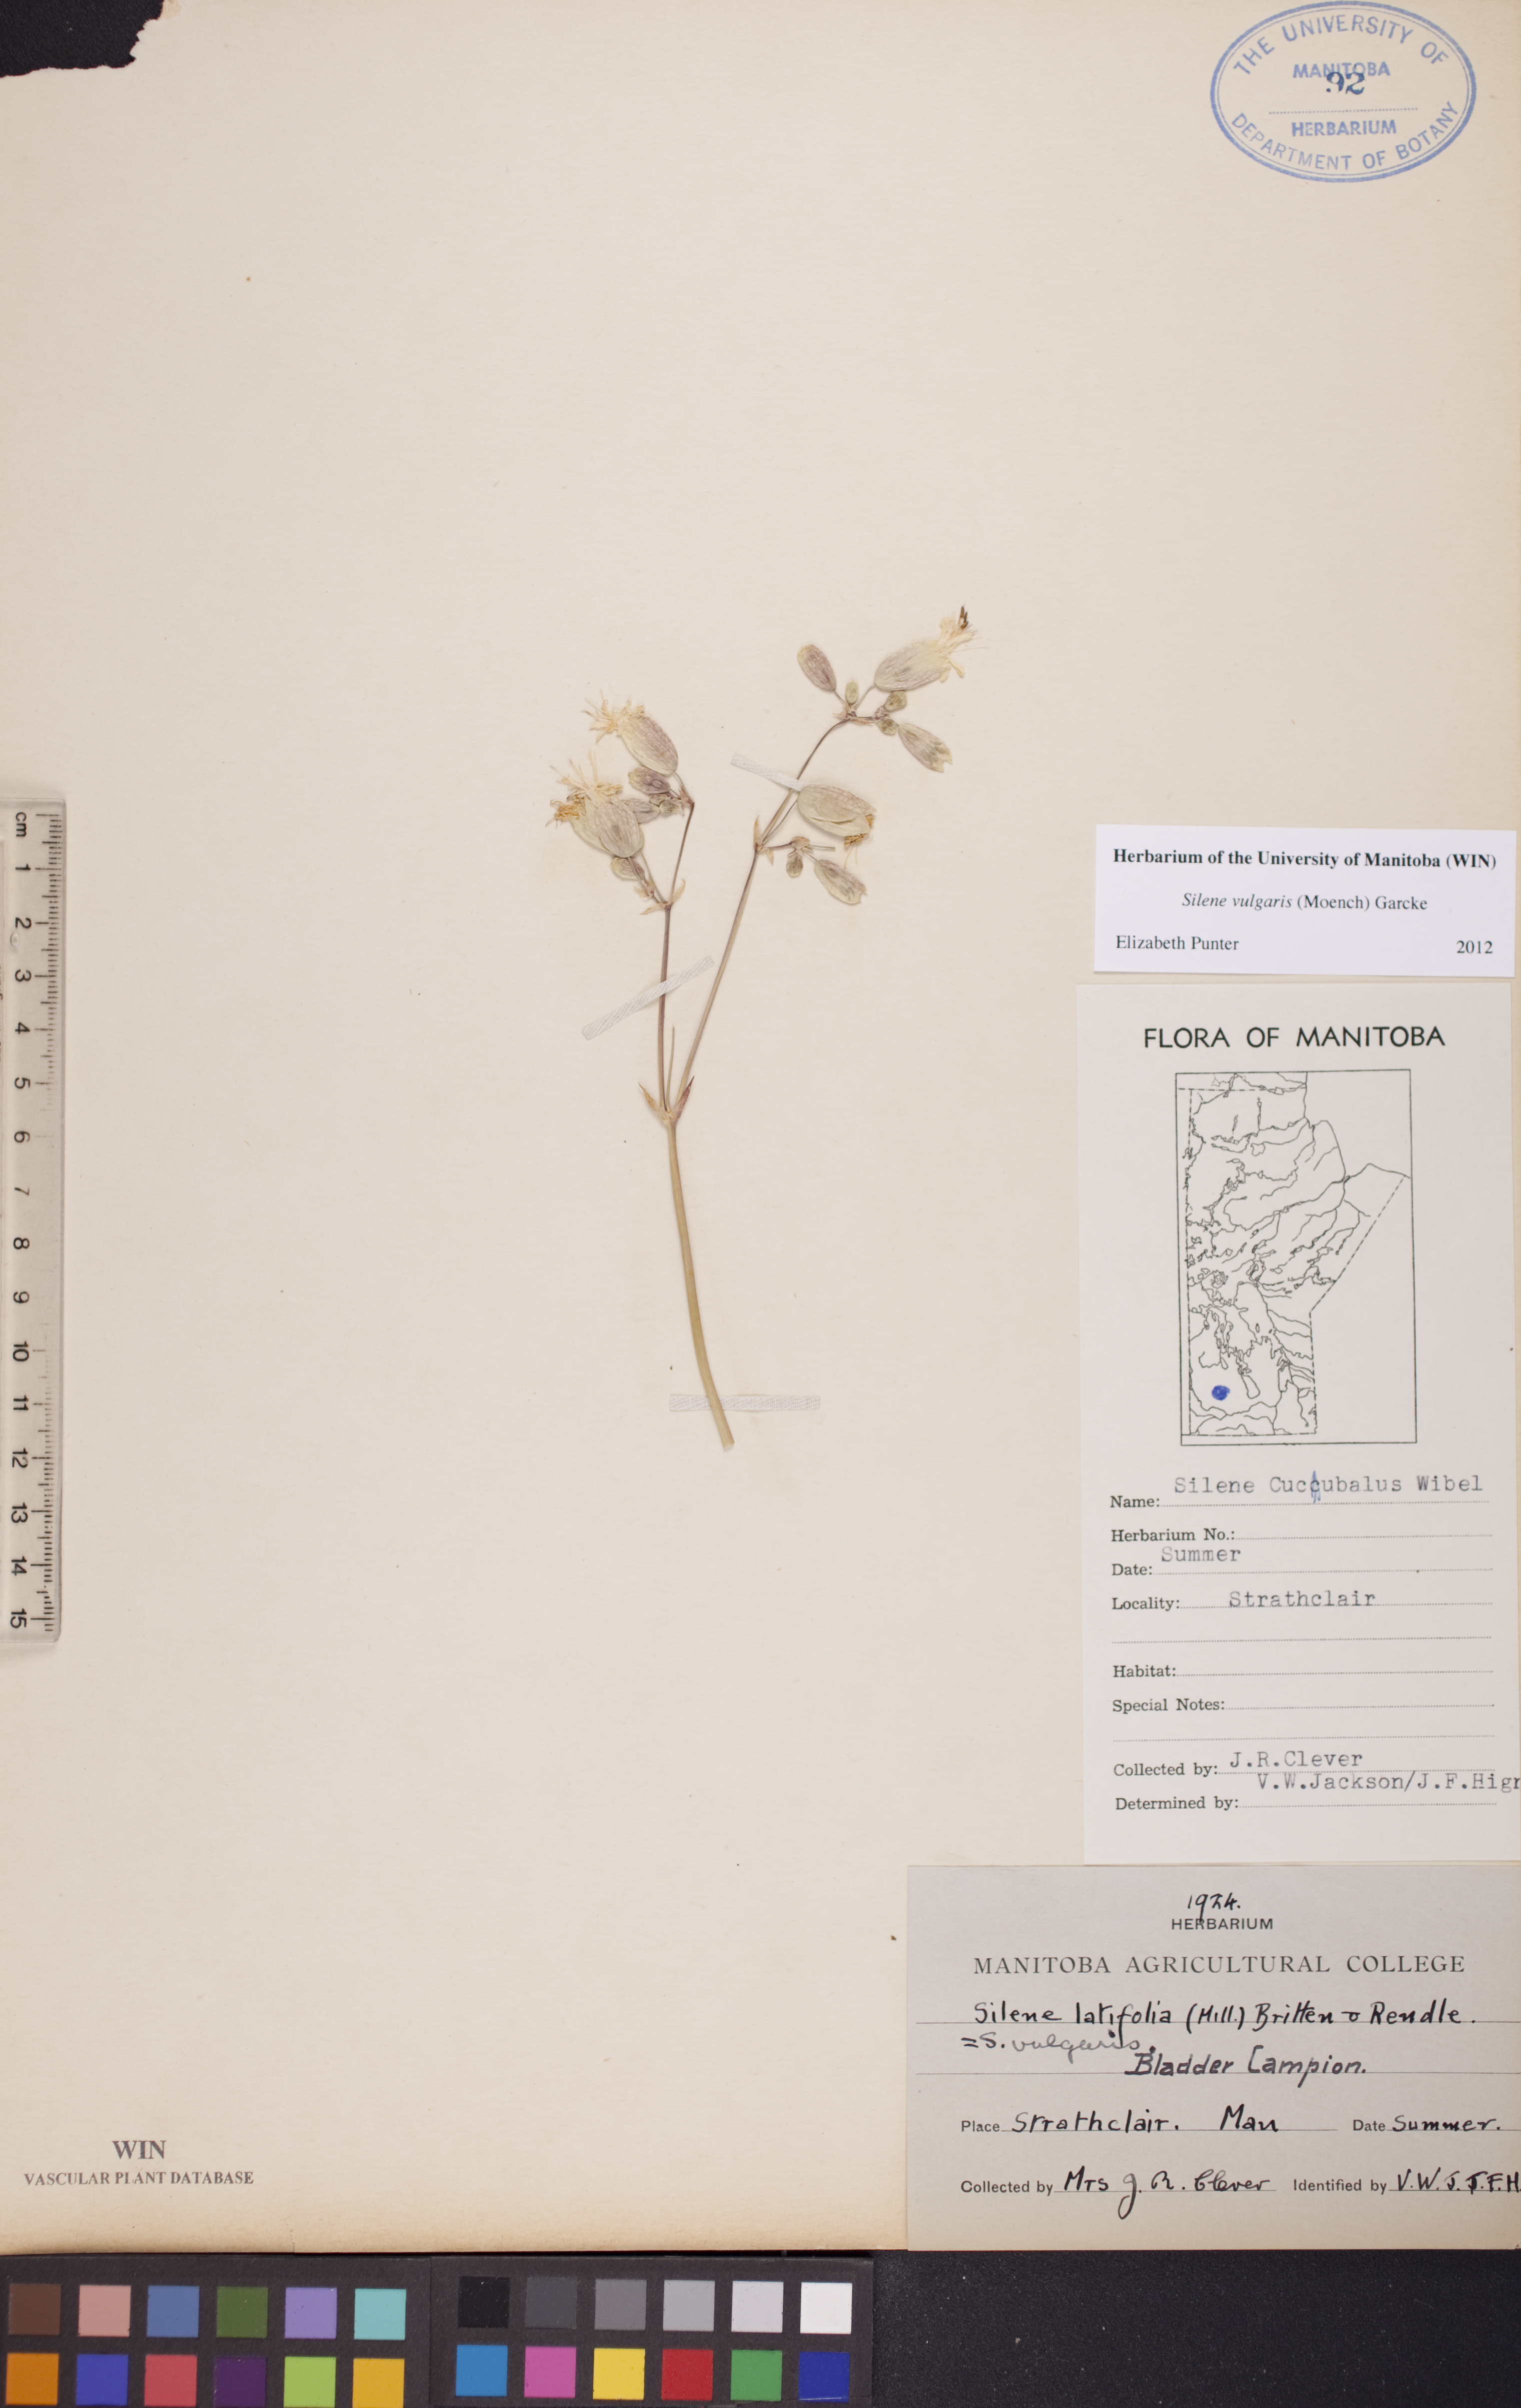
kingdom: Plantae
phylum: Tracheophyta
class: Magnoliopsida
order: Caryophyllales
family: Caryophyllaceae
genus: Silene
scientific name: Silene vulgaris
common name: Bladder campion
